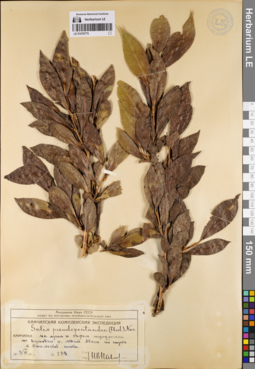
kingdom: Plantae
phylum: Tracheophyta
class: Magnoliopsida
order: Malpighiales
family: Salicaceae
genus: Salix
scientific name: Salix pseudopentandra
